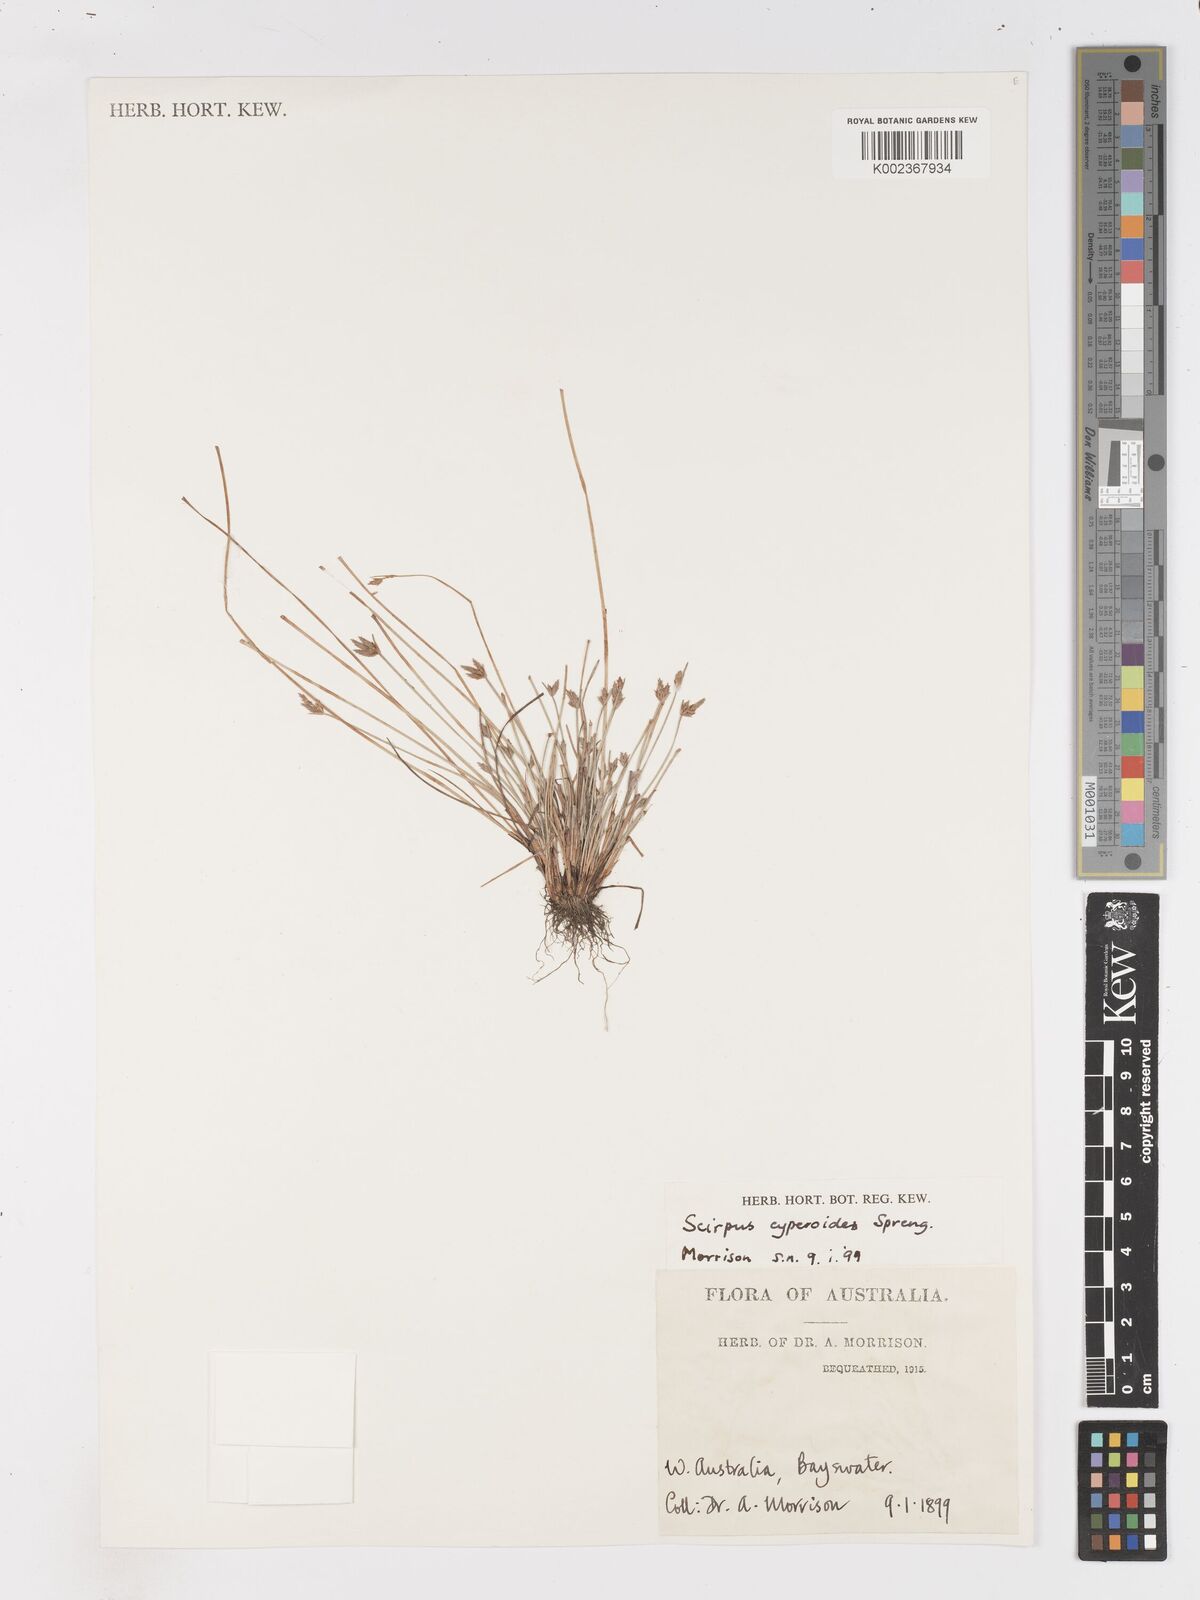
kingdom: Plantae
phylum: Tracheophyta
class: Liliopsida
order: Poales
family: Cyperaceae
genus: Isolepis
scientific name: Isolepis cyperoides
